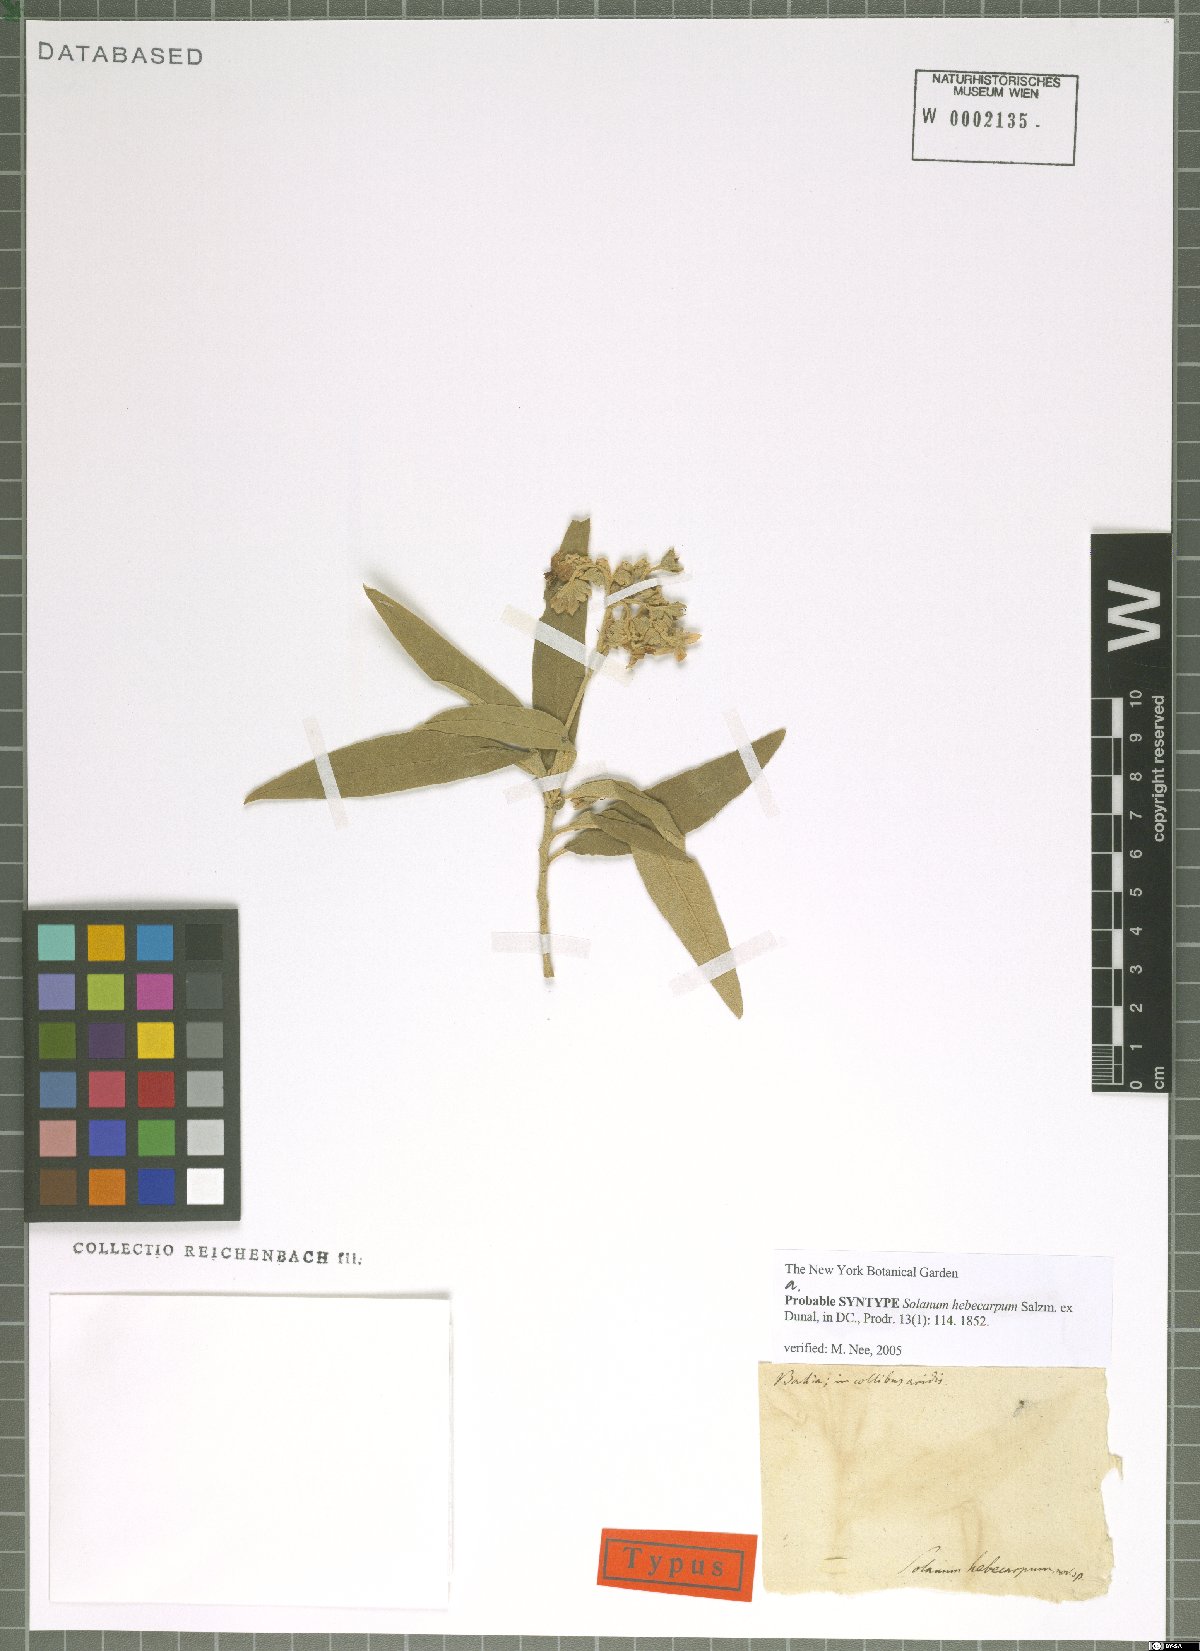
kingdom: Plantae
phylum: Tracheophyta
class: Magnoliopsida
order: Solanales
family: Solanaceae
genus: Solanum
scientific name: Solanum stipulaceum
